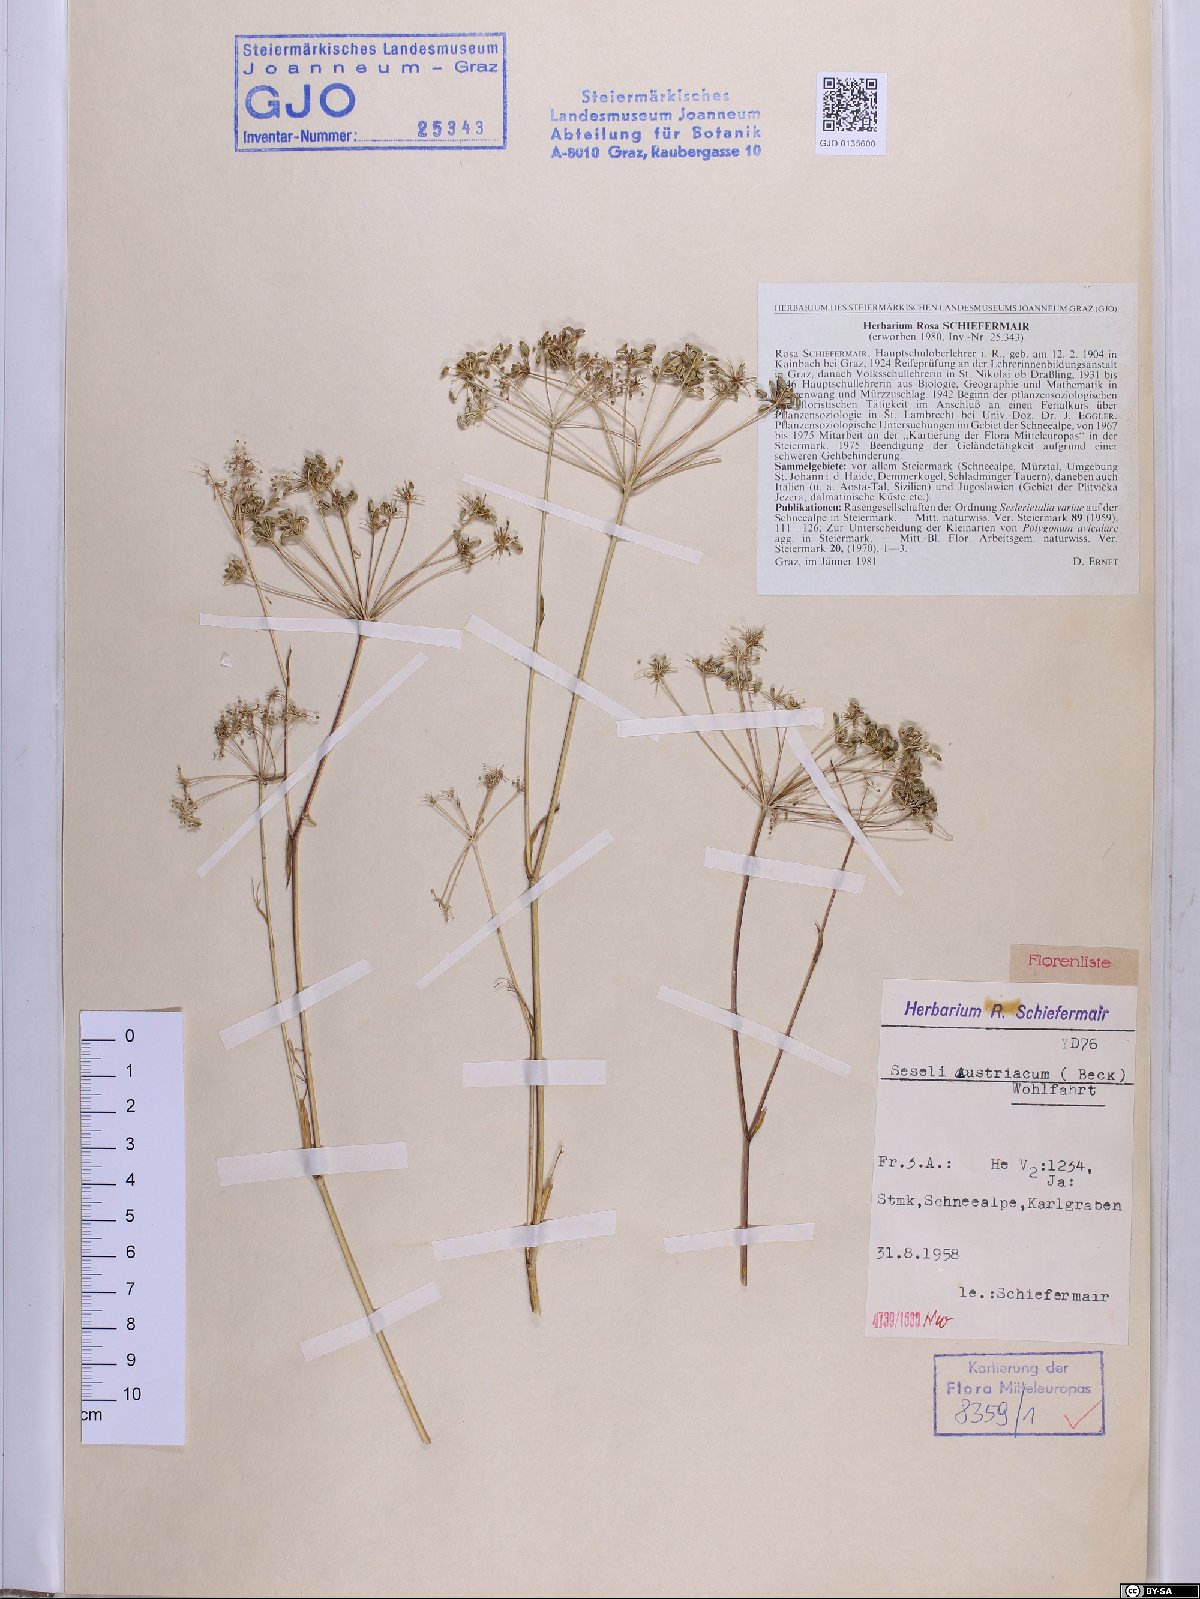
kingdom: Plantae
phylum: Tracheophyta
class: Magnoliopsida
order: Apiales
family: Apiaceae
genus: Seseli
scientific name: Seseli austriacum
